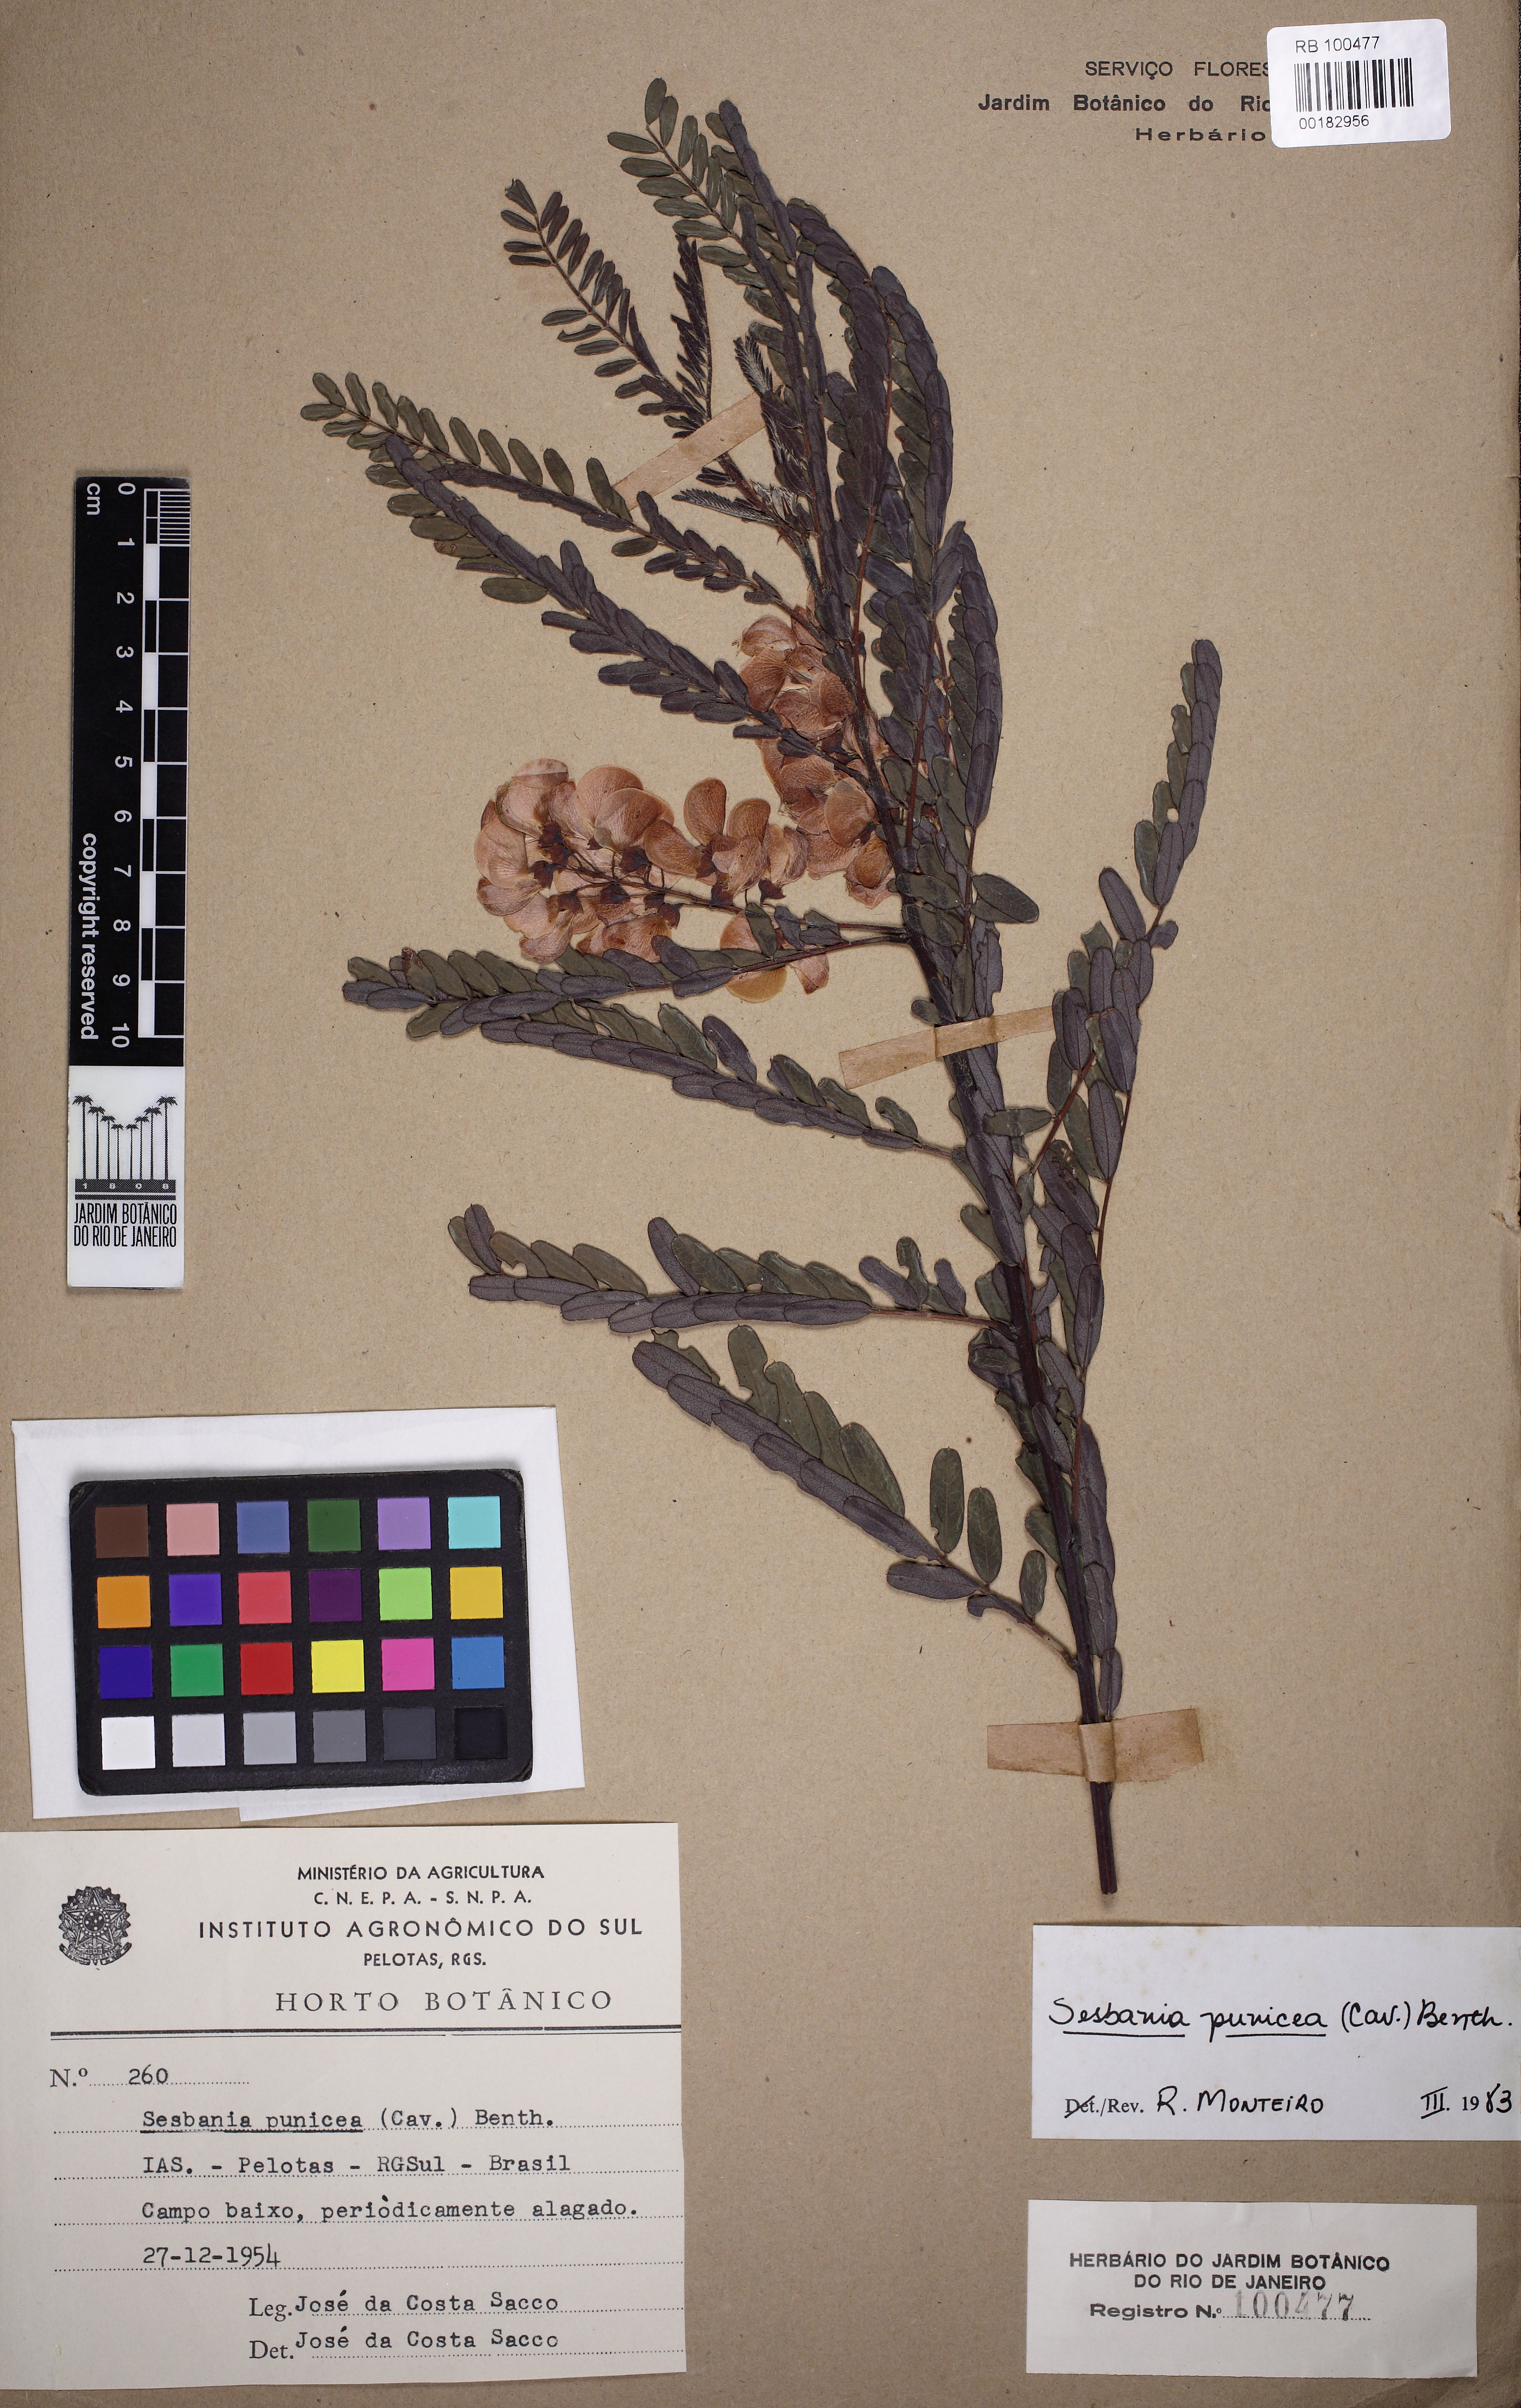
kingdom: Plantae
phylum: Tracheophyta
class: Magnoliopsida
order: Fabales
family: Fabaceae
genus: Sesbania
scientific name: Sesbania punicea
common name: Rattlebox
